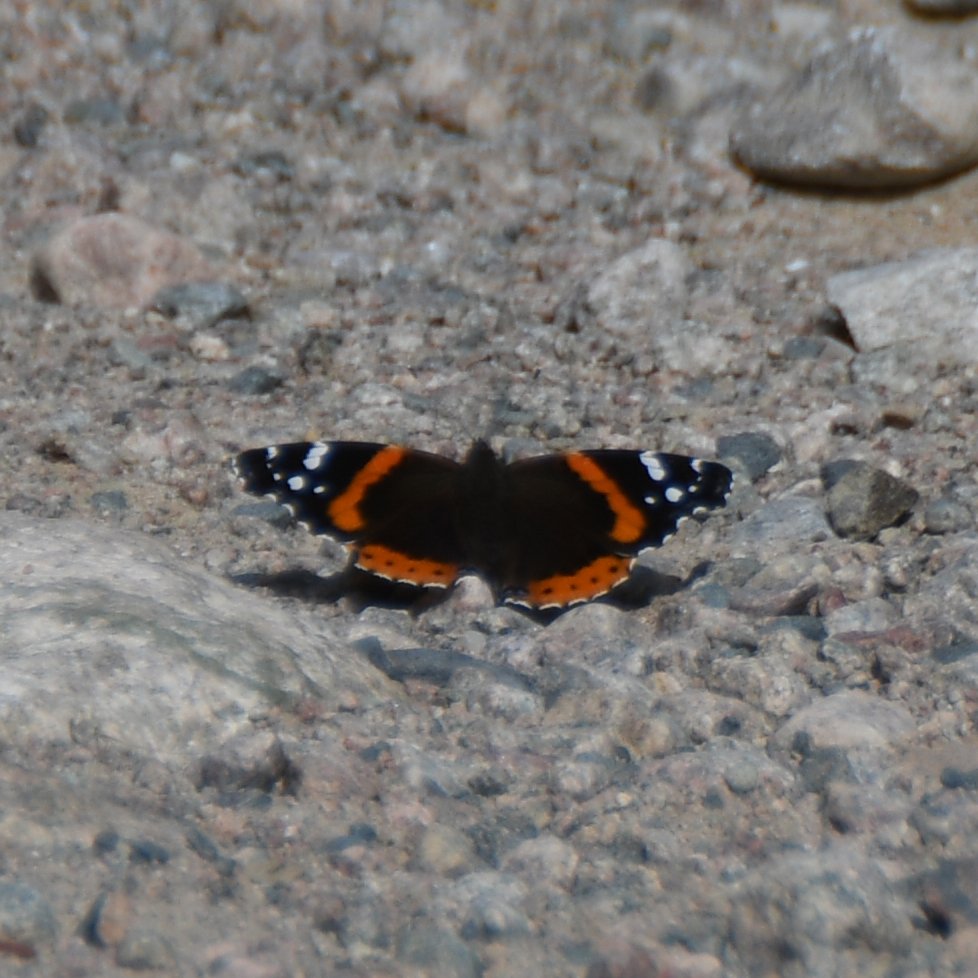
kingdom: Animalia
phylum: Arthropoda
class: Insecta
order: Lepidoptera
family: Nymphalidae
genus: Vanessa
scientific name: Vanessa atalanta
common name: Red Admiral
